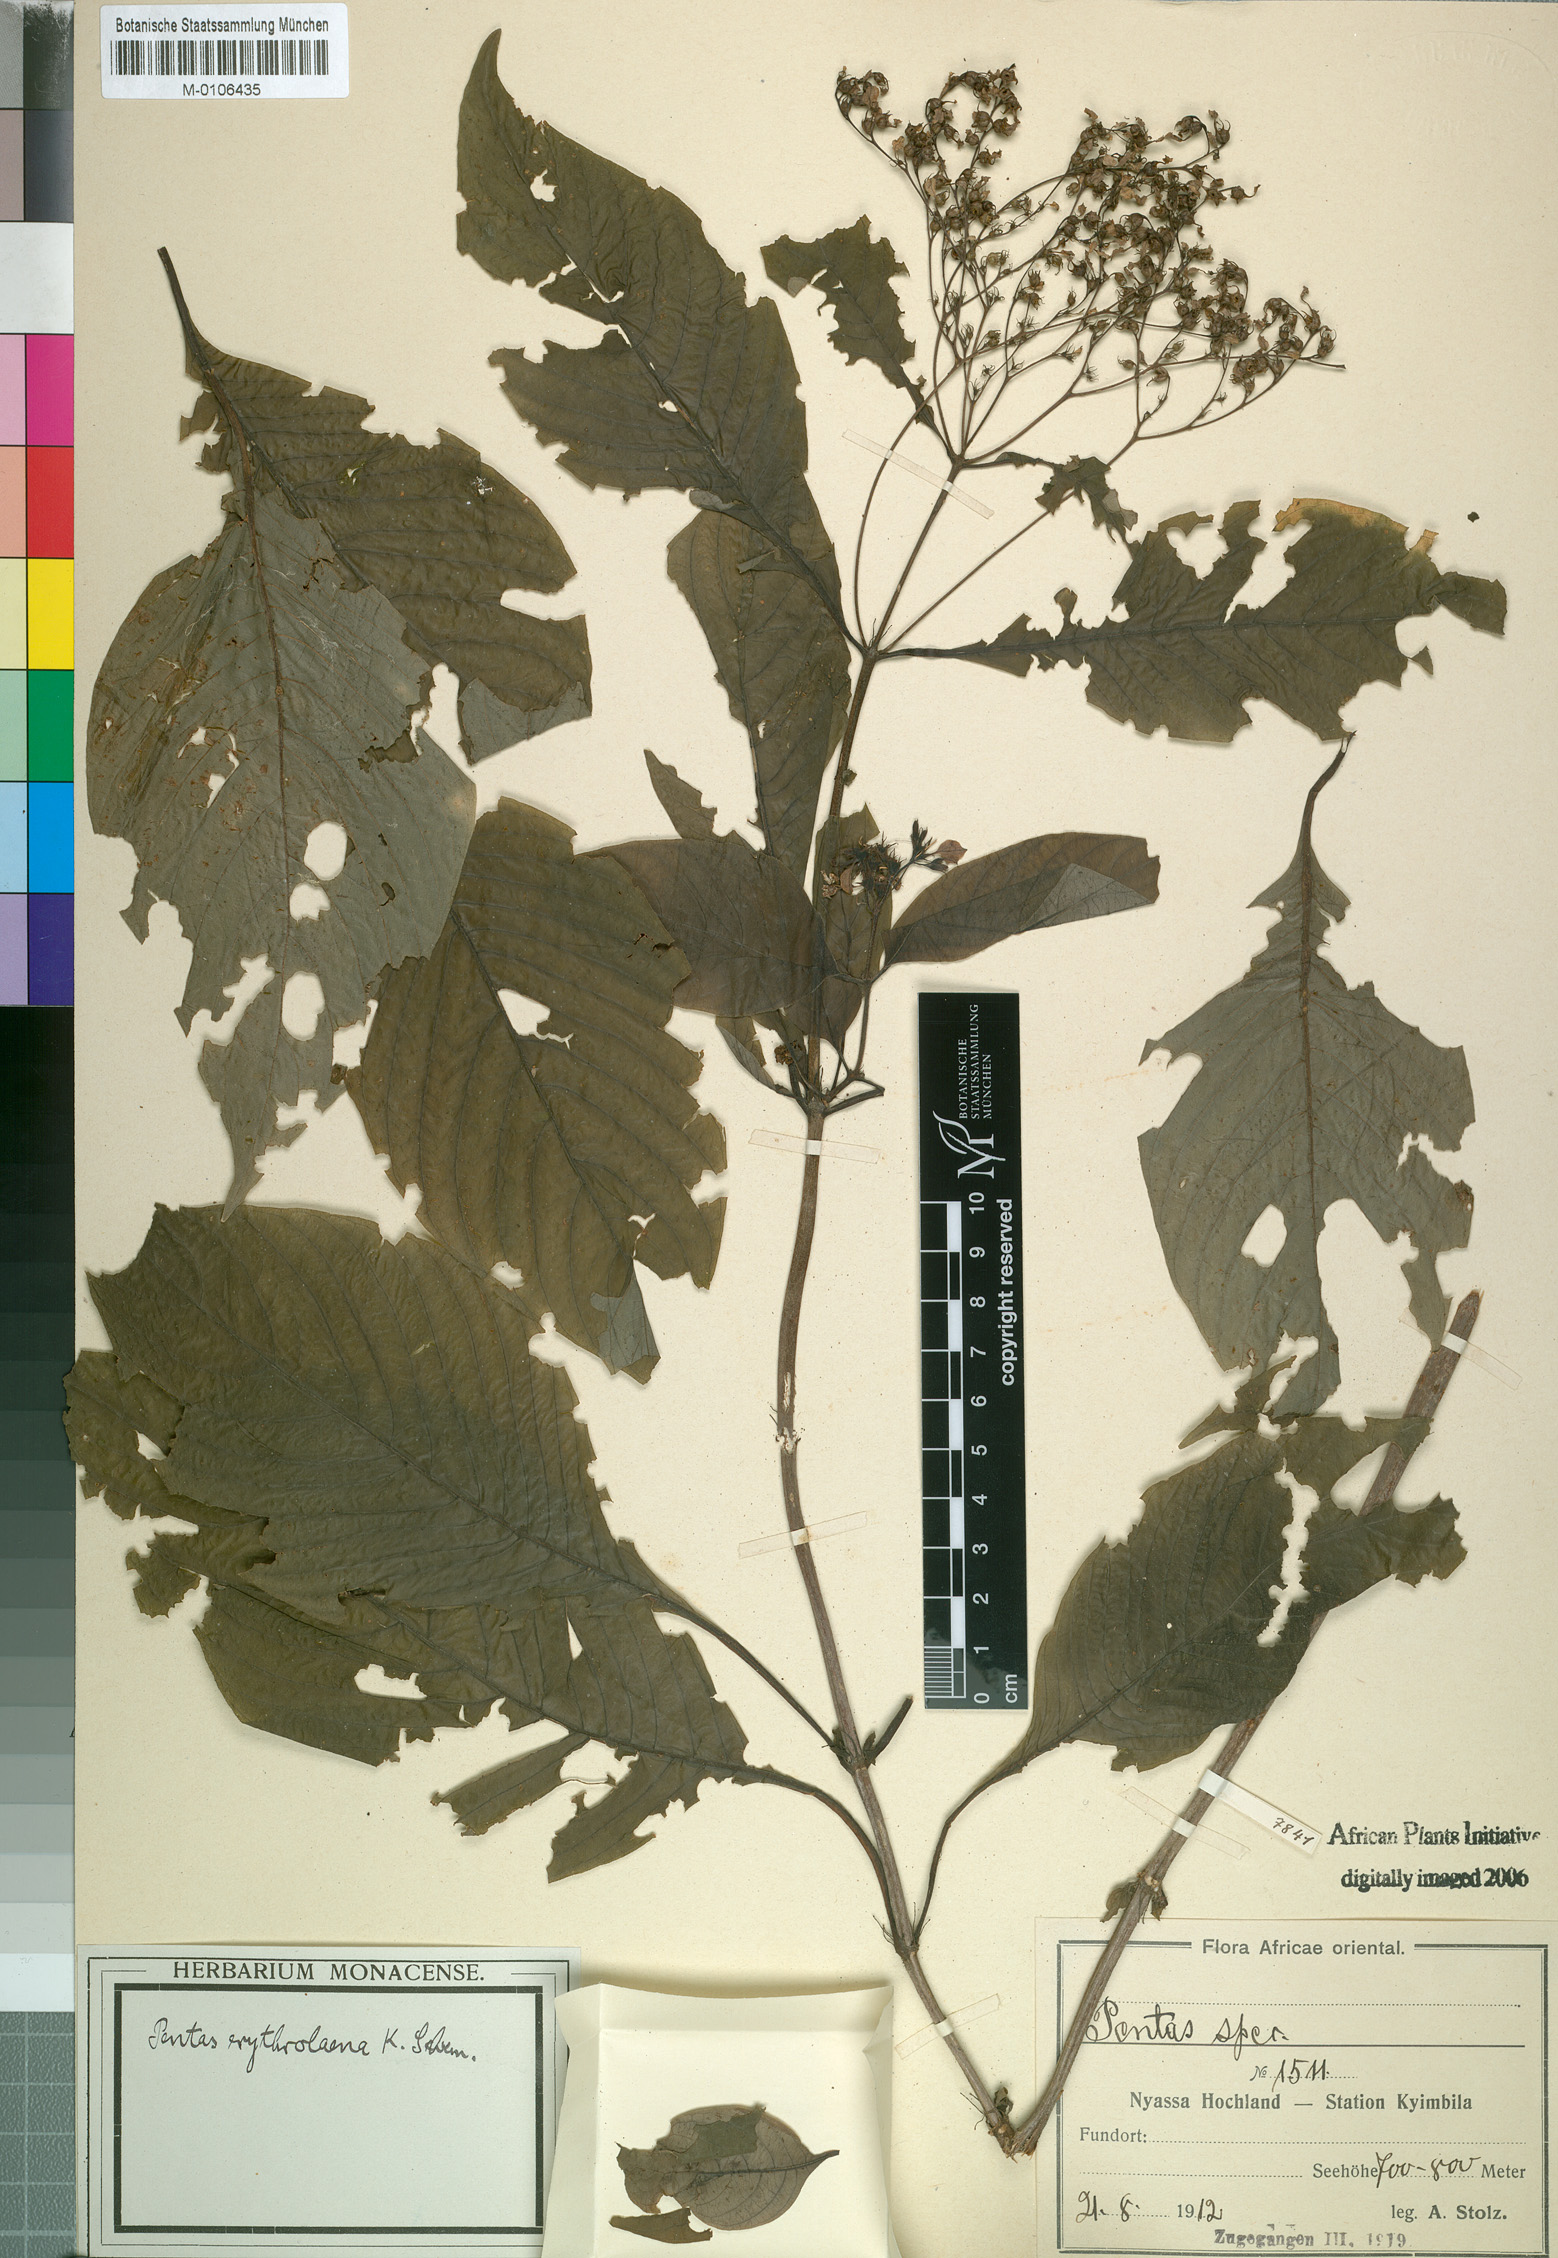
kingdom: Plantae
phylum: Tracheophyta
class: Magnoliopsida
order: Gentianales
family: Rubiaceae
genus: Pentas
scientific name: Pentas
